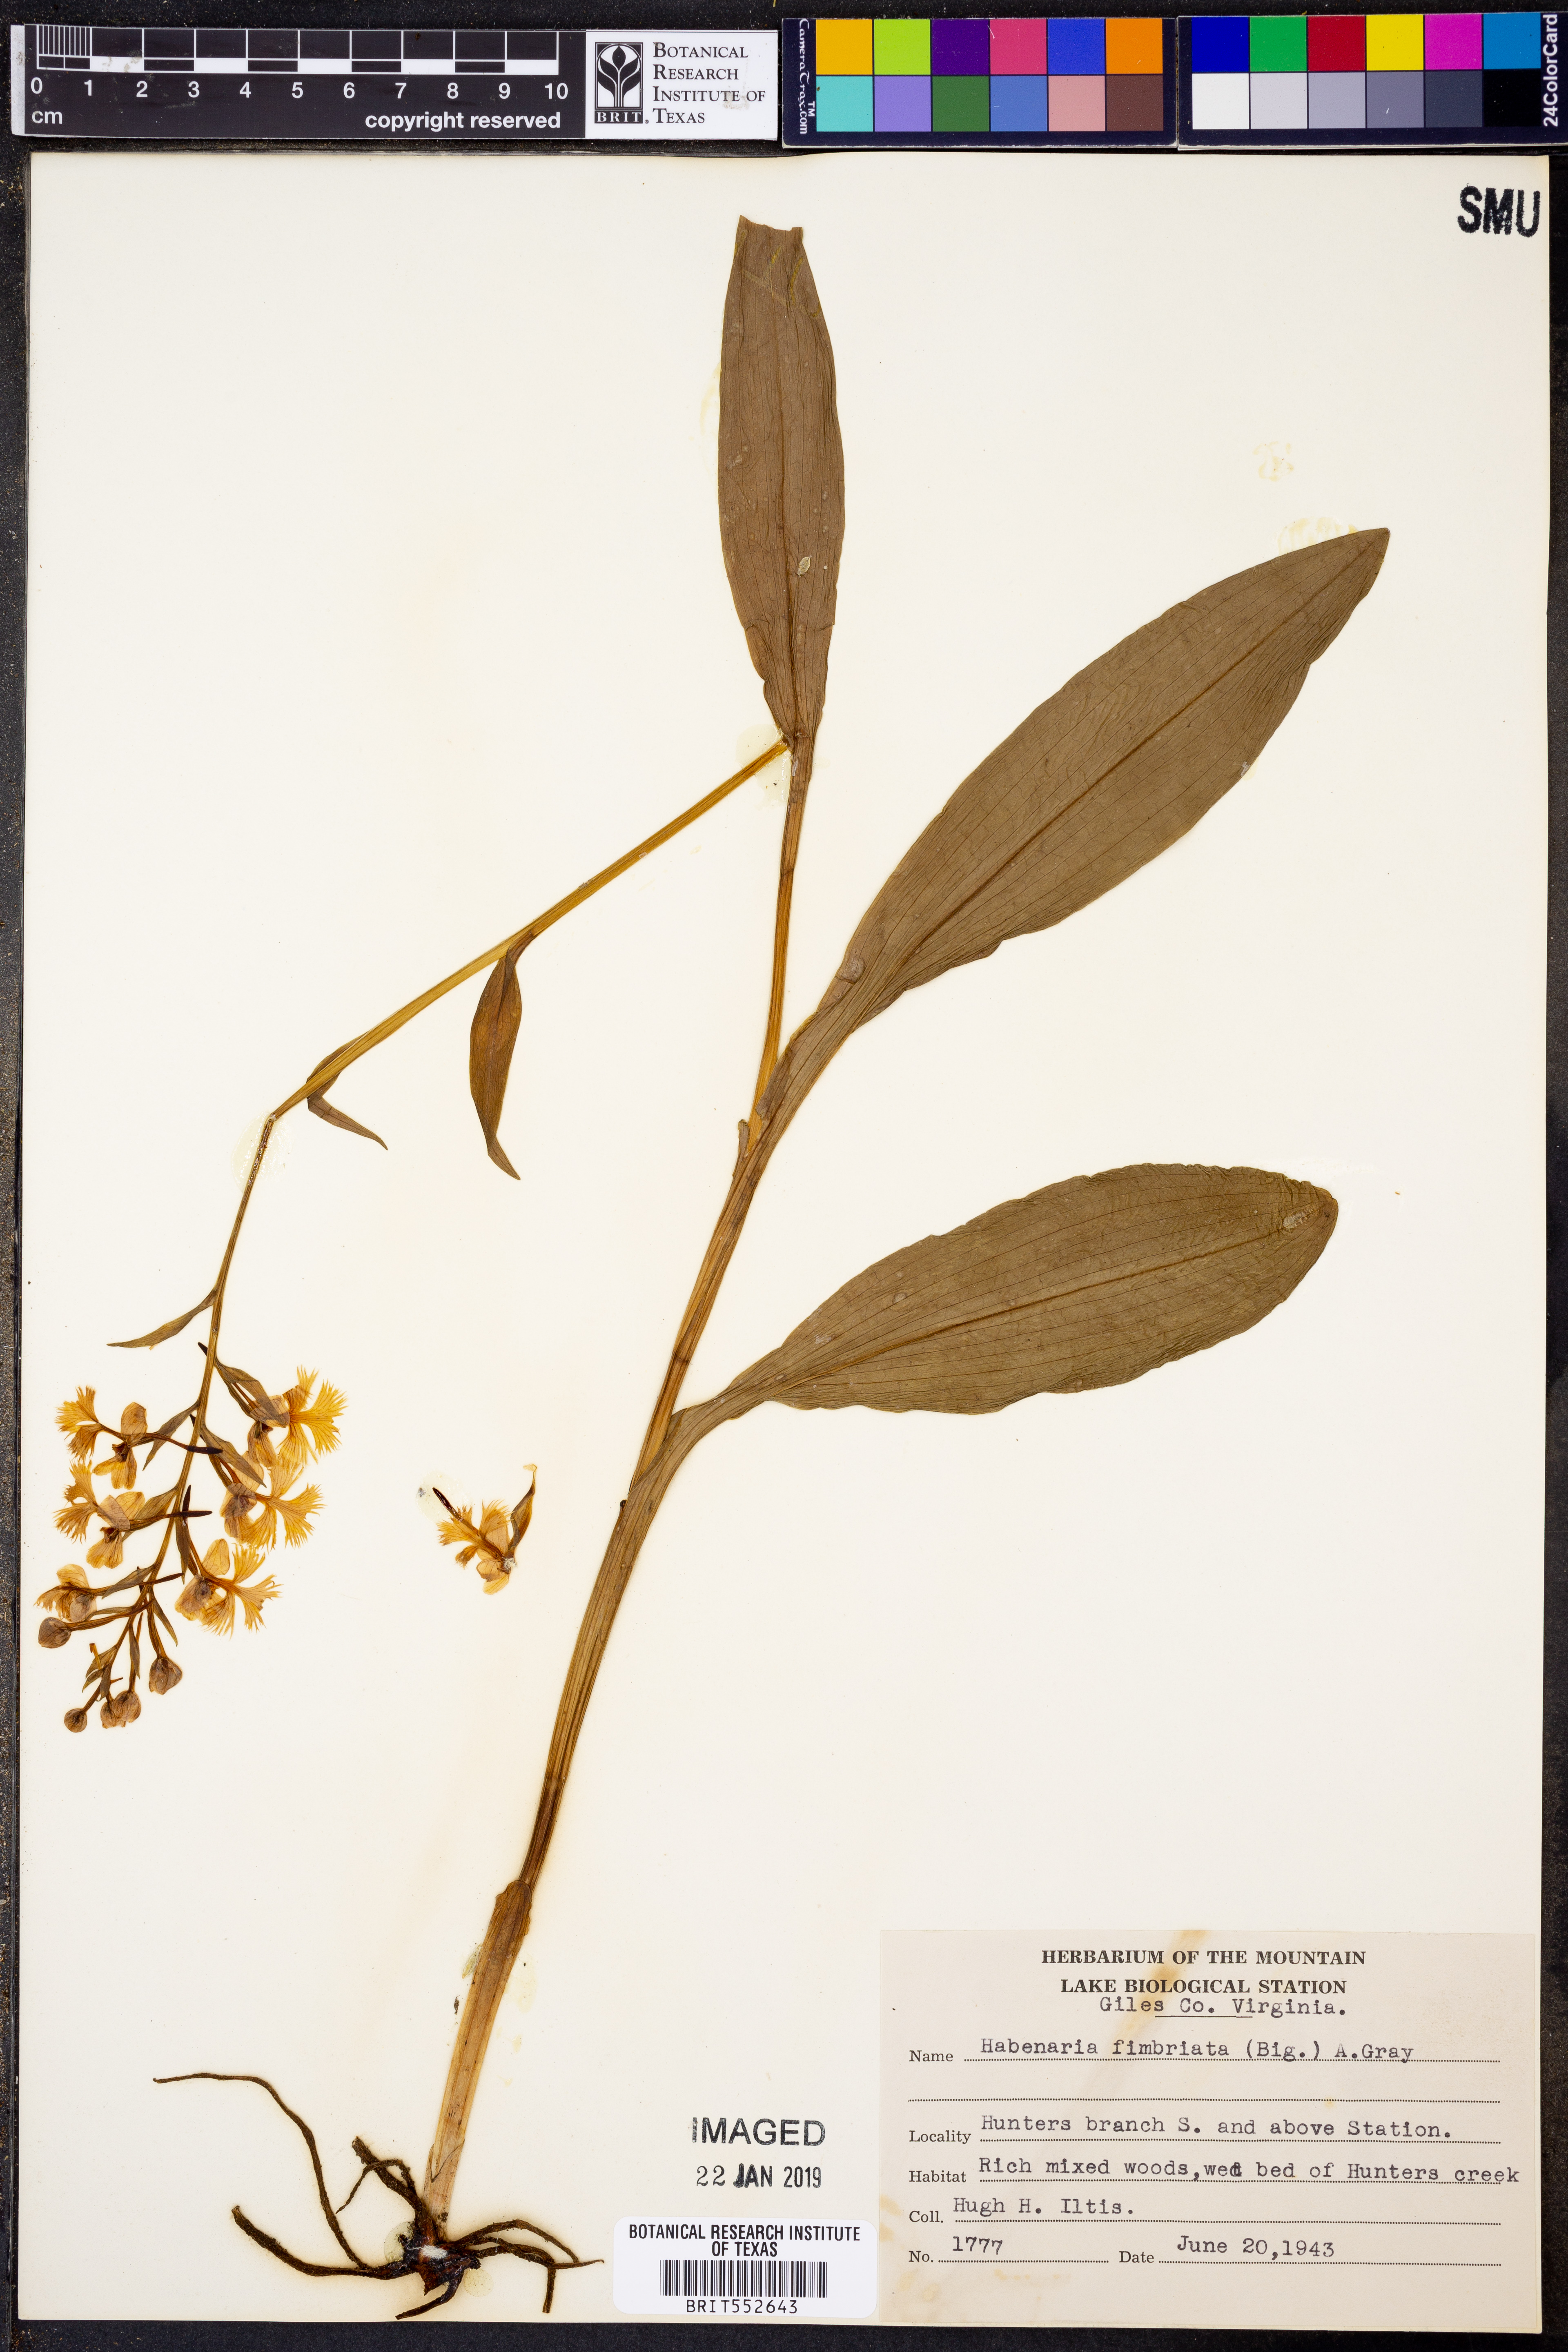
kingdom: Plantae
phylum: Tracheophyta
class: Liliopsida
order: Asparagales
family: Orchidaceae
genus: Platanthera
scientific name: Platanthera grandiflora
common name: Greater purple fringed orchid
